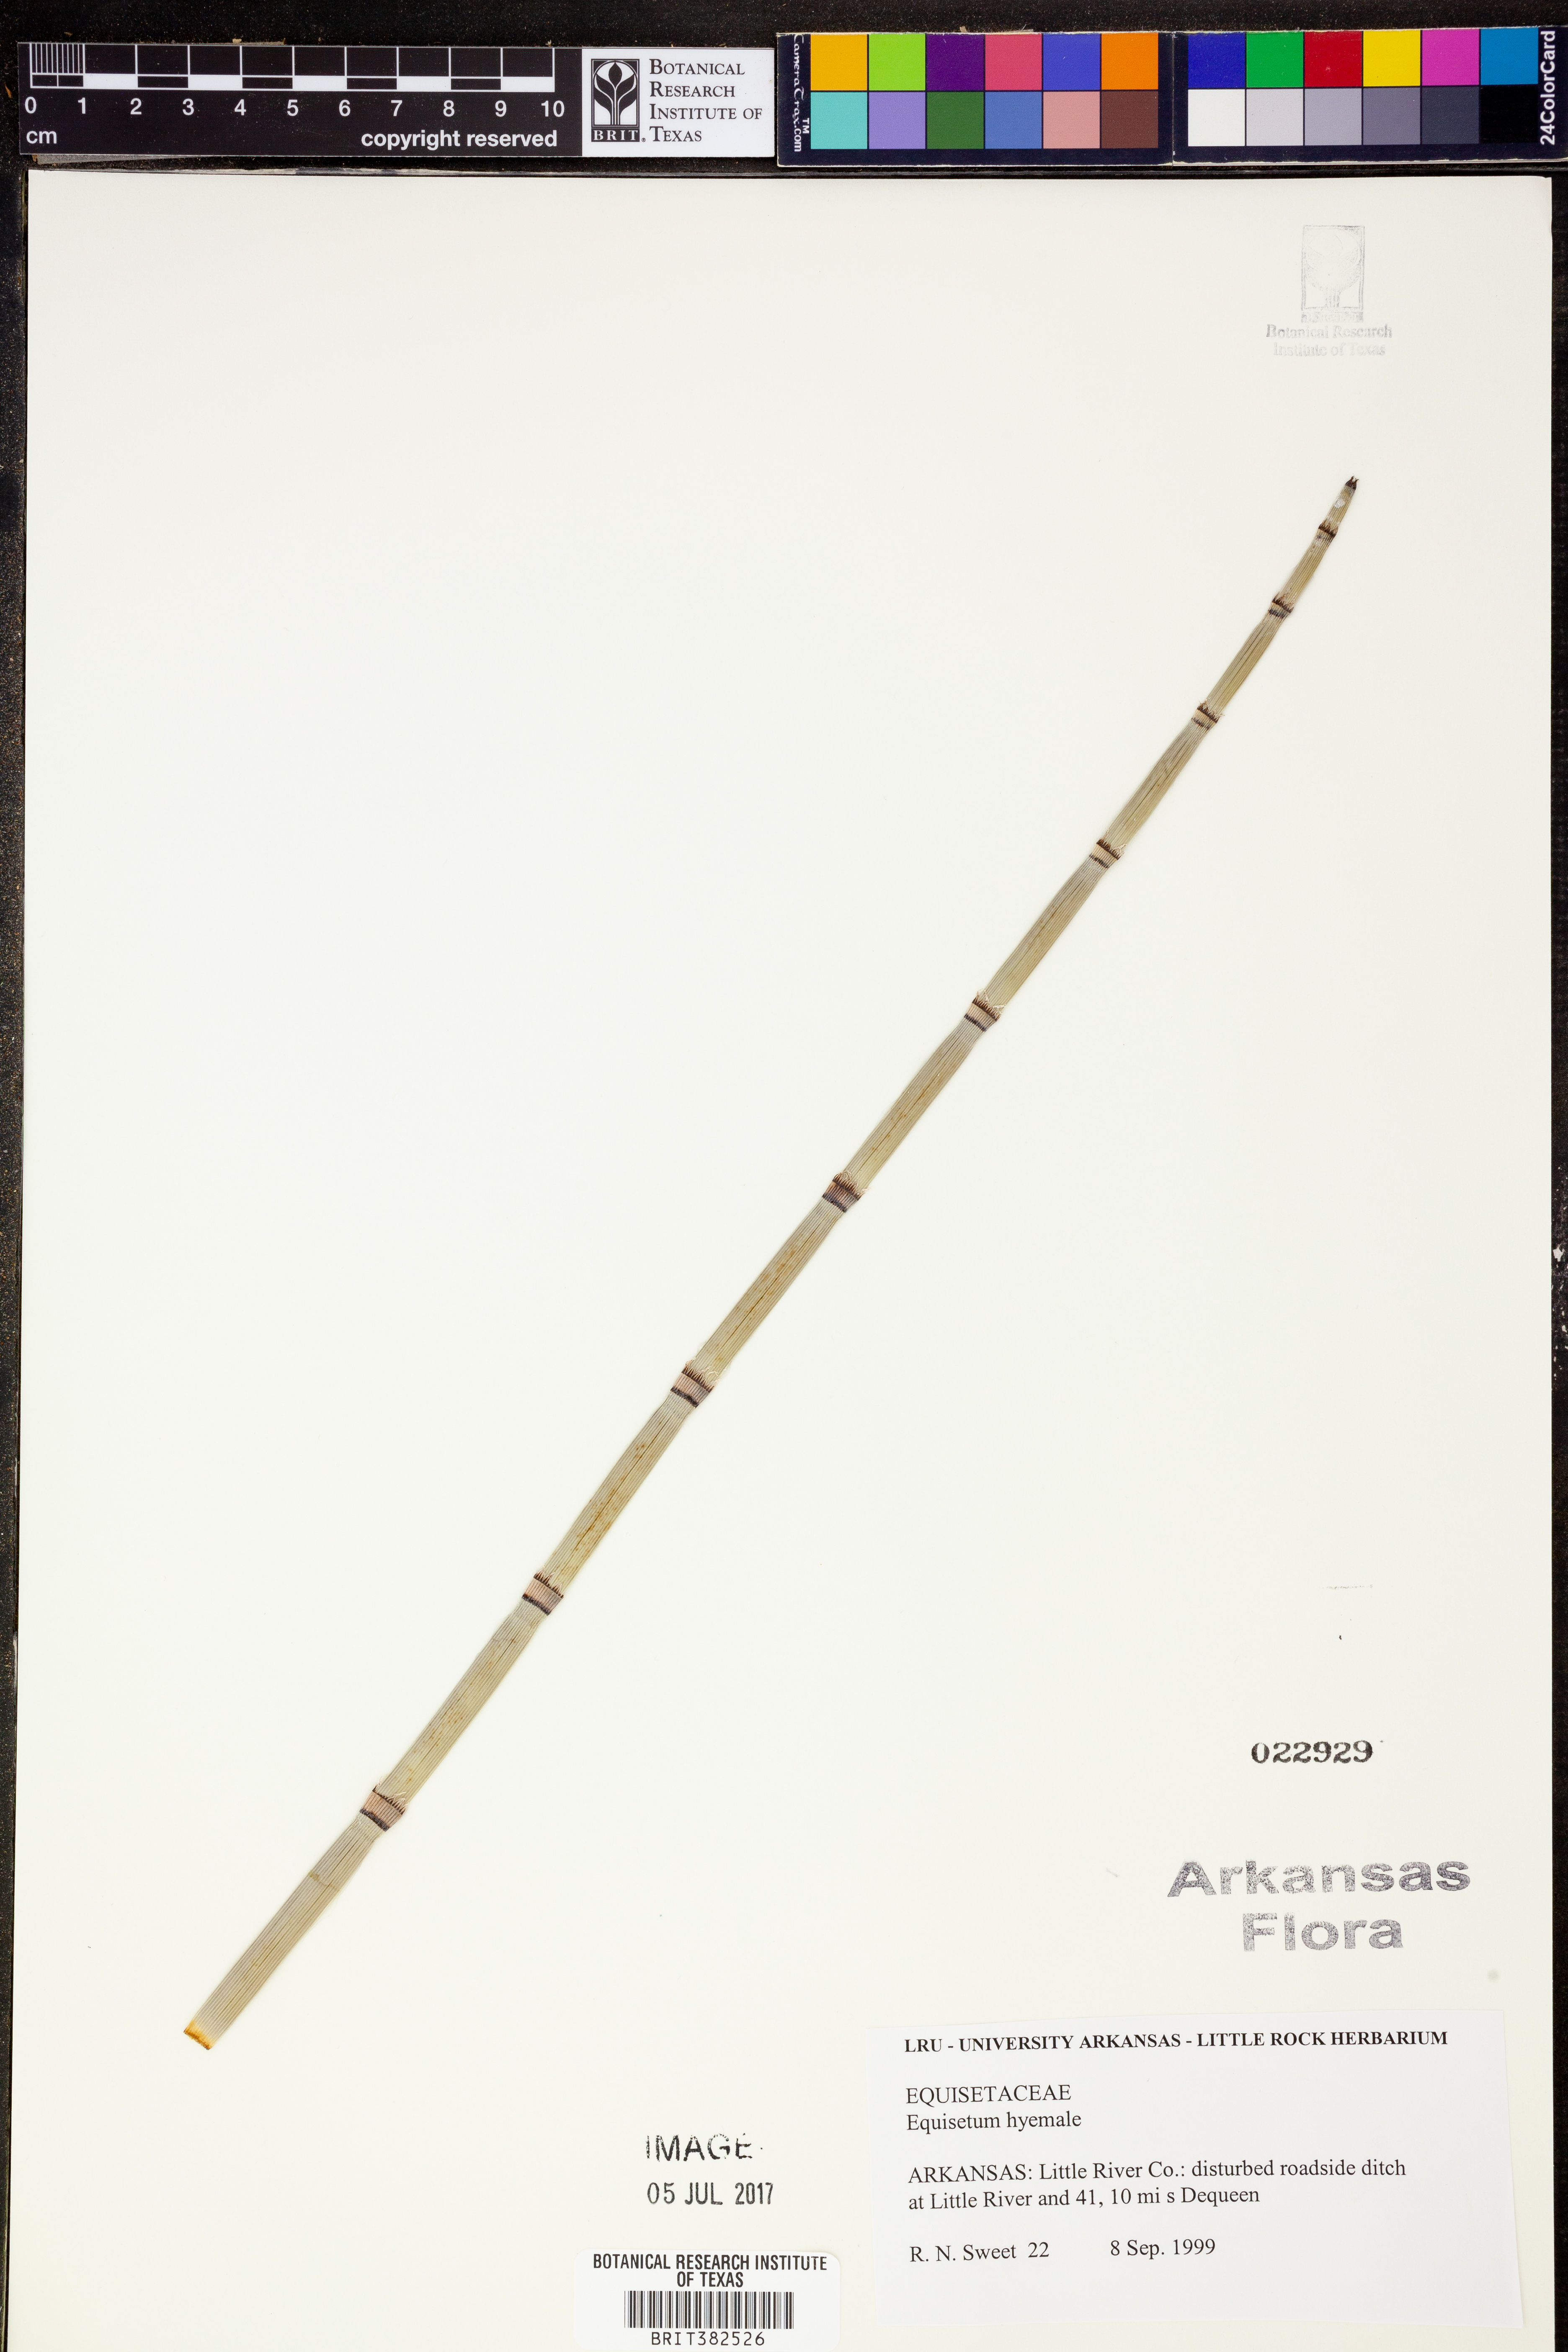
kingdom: Plantae
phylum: Tracheophyta
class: Polypodiopsida
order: Equisetales
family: Equisetaceae
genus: Equisetum
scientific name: Equisetum hyemale
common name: Rough horsetail
